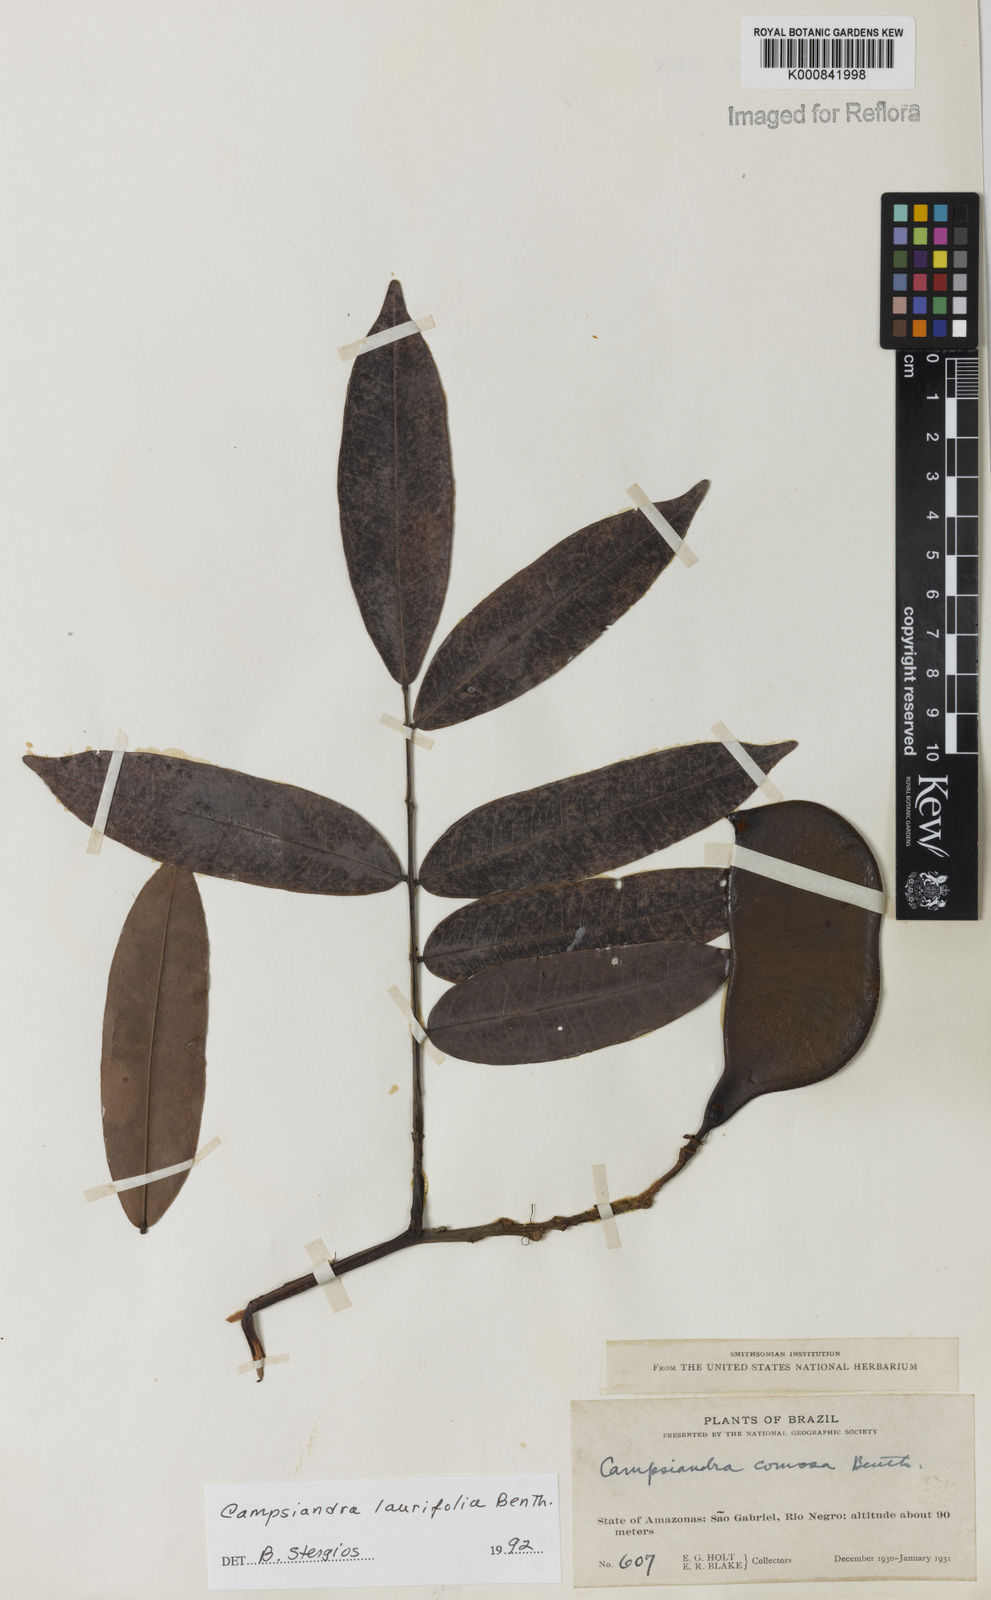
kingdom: Plantae
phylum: Tracheophyta
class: Magnoliopsida
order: Fabales
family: Fabaceae
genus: Campsiandra
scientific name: Campsiandra laurifolia
